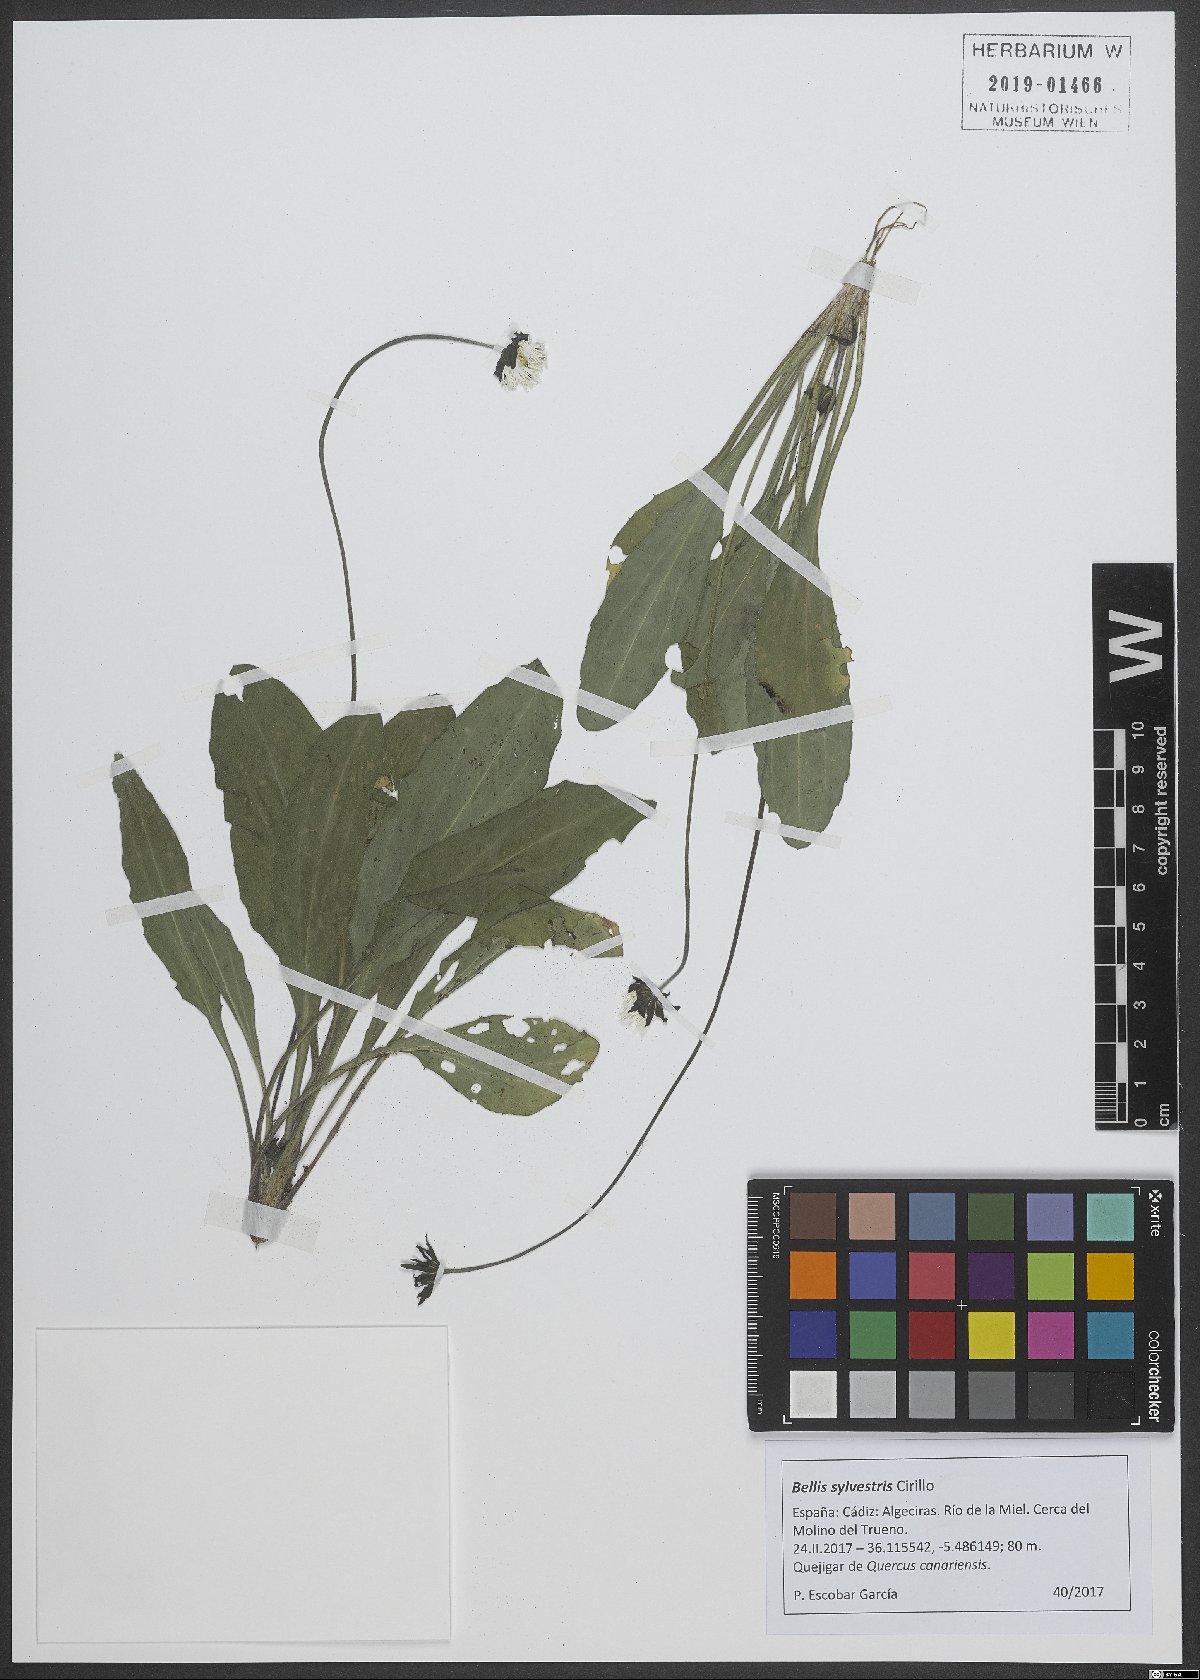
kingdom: Plantae
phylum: Tracheophyta
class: Magnoliopsida
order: Asterales
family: Asteraceae
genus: Bellis
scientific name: Bellis sylvestris
